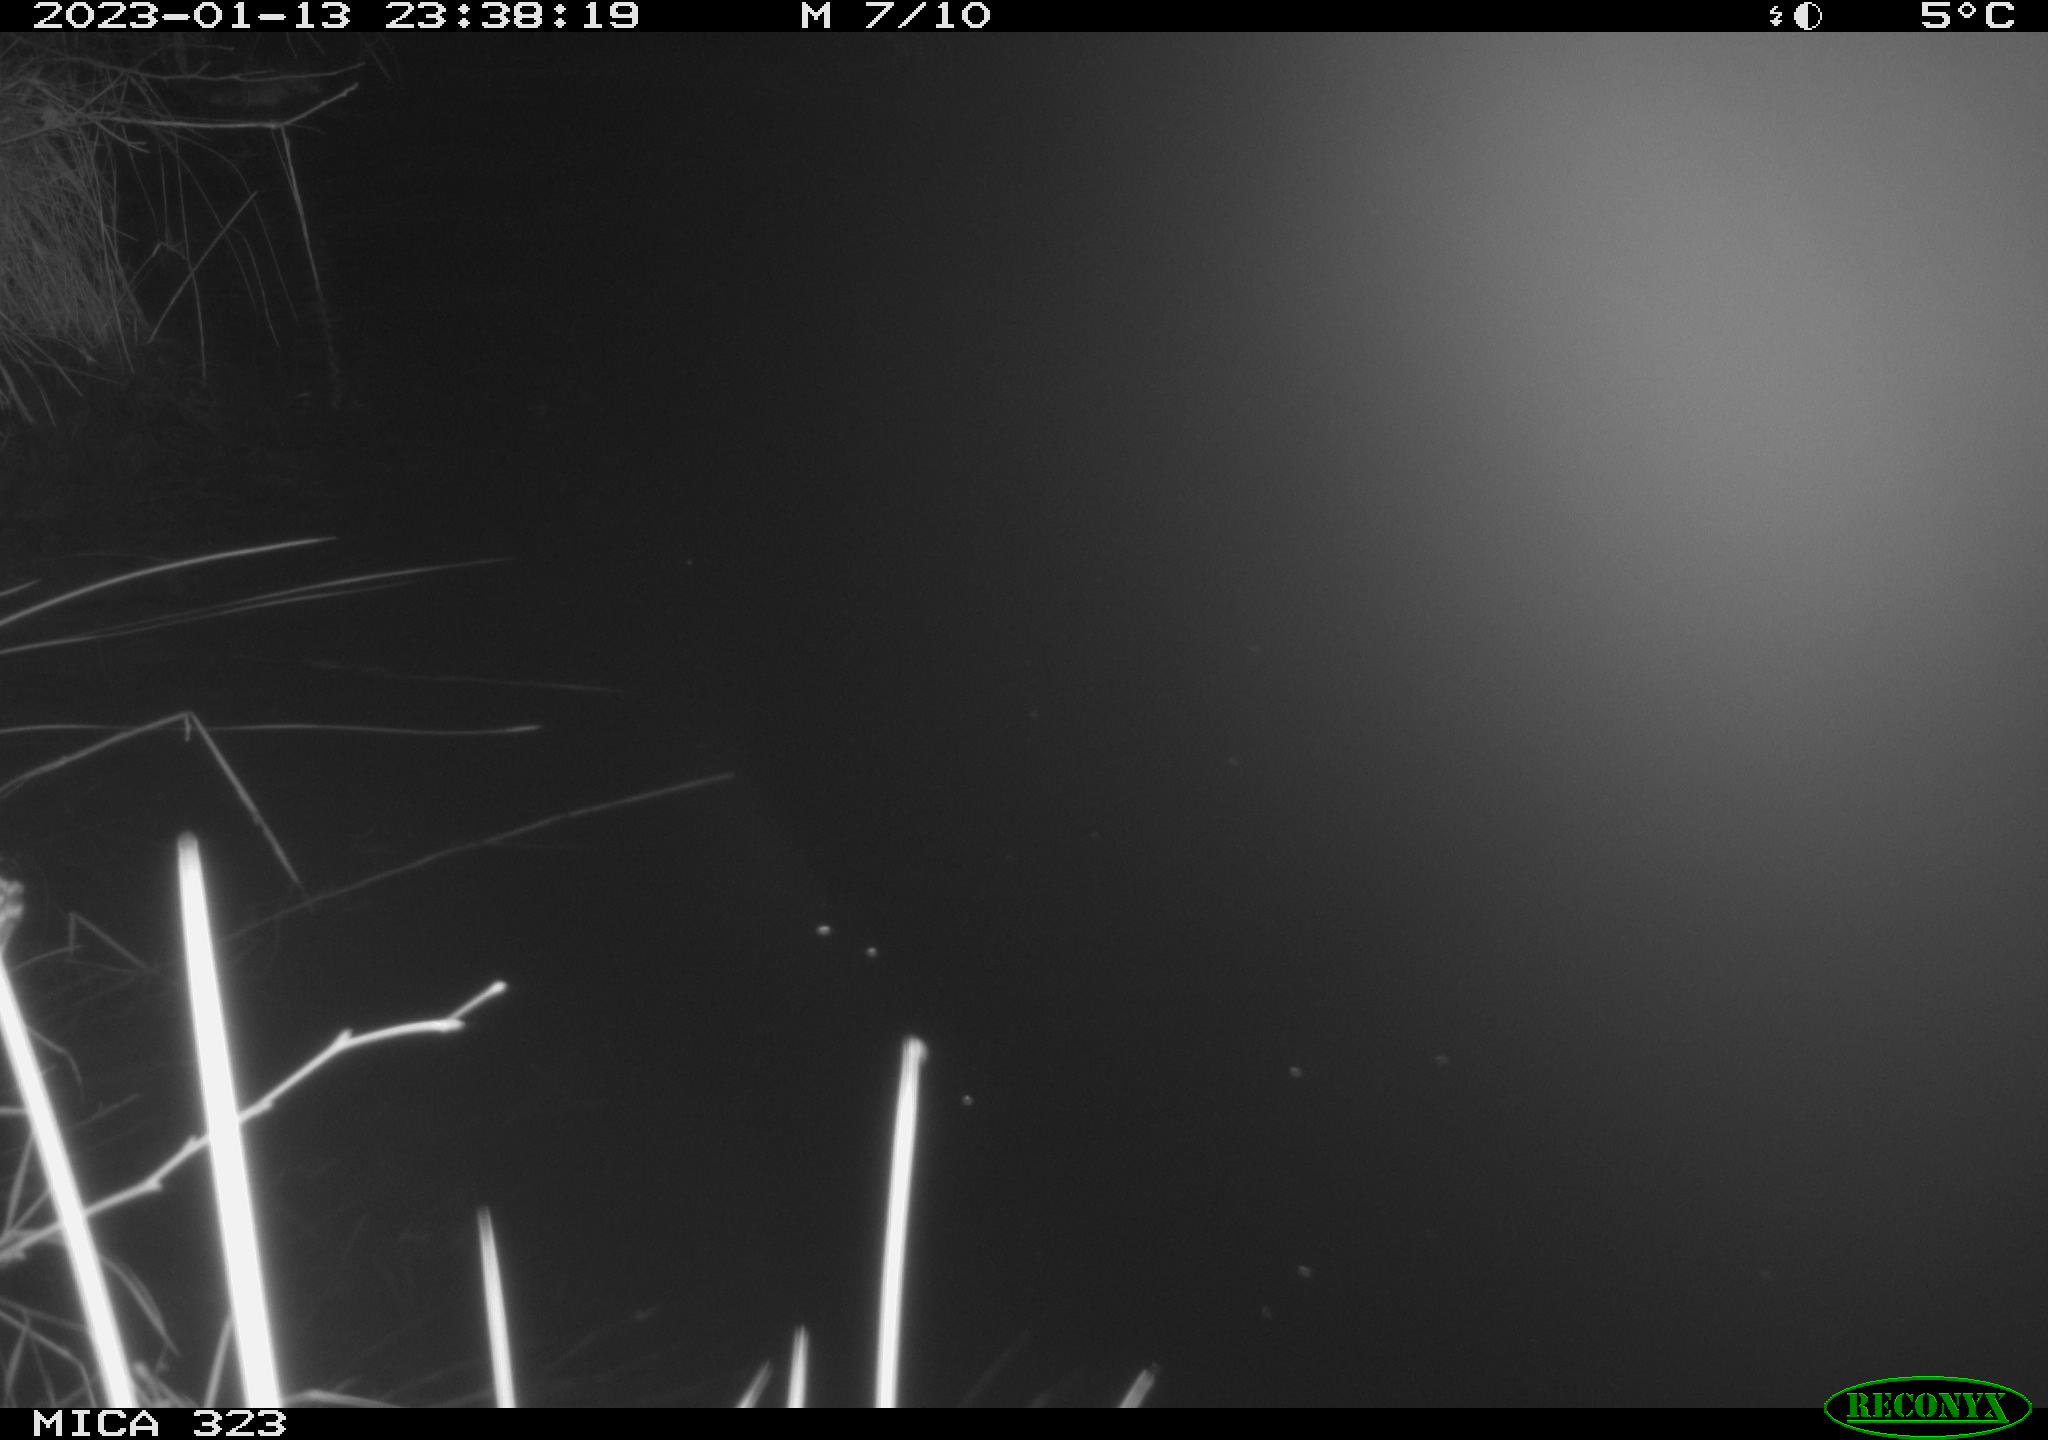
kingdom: Animalia
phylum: Chordata
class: Mammalia
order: Rodentia
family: Cricetidae
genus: Ondatra
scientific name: Ondatra zibethicus
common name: Muskrat
